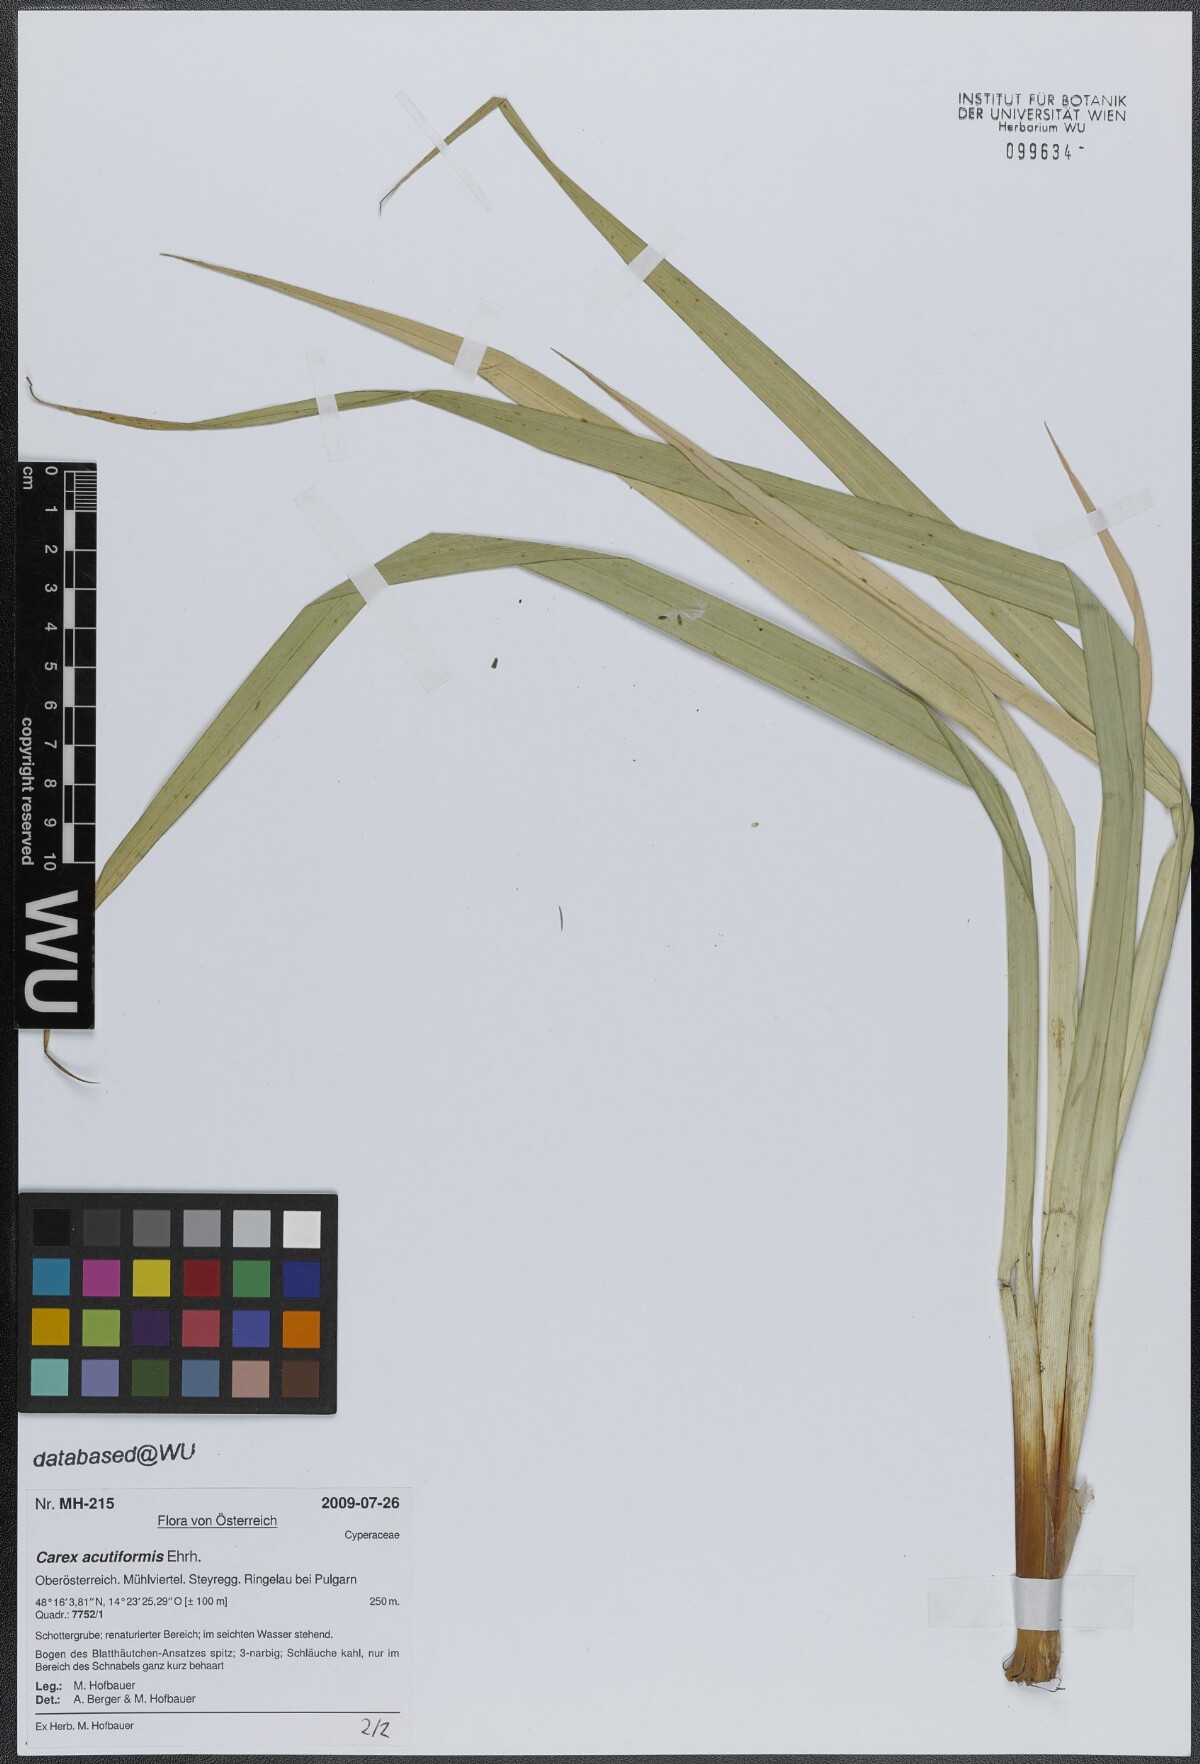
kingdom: Plantae
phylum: Tracheophyta
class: Liliopsida
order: Poales
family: Cyperaceae
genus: Carex
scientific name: Carex acutiformis
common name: Lesser pond-sedge
